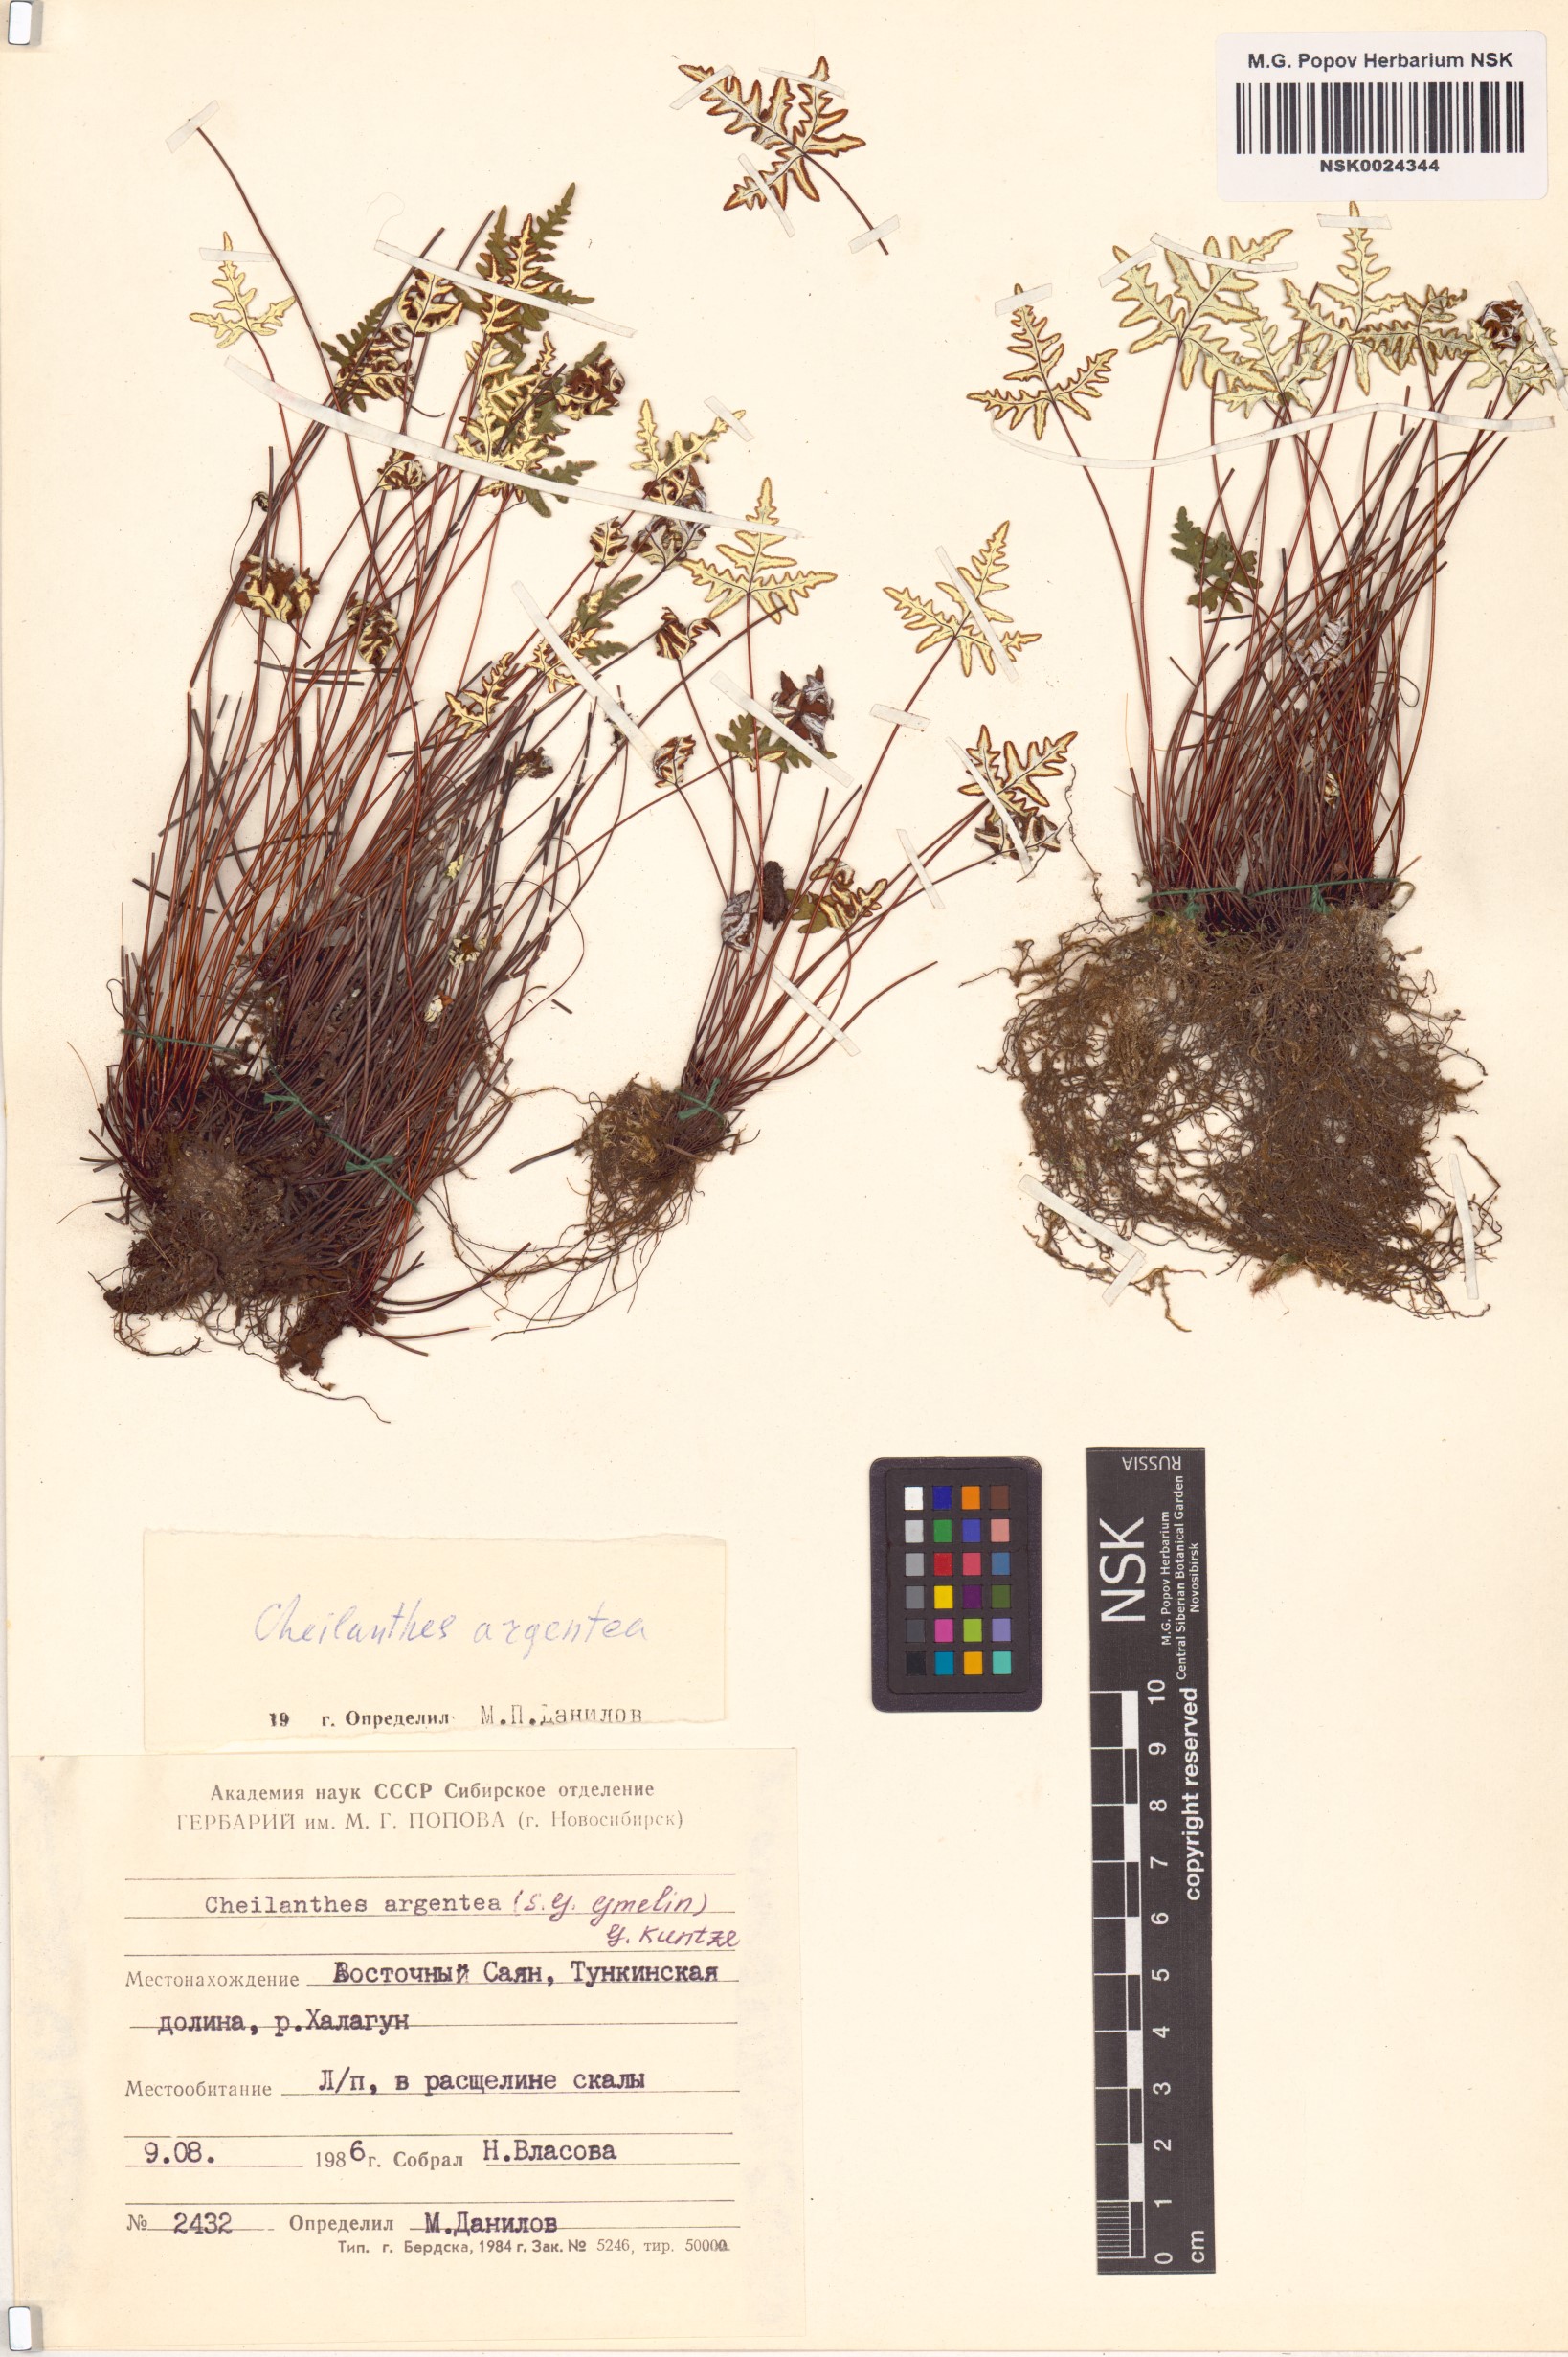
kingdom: Plantae
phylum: Tracheophyta
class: Polypodiopsida
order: Polypodiales
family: Pteridaceae
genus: Aleuritopteris
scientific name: Aleuritopteris argentea
